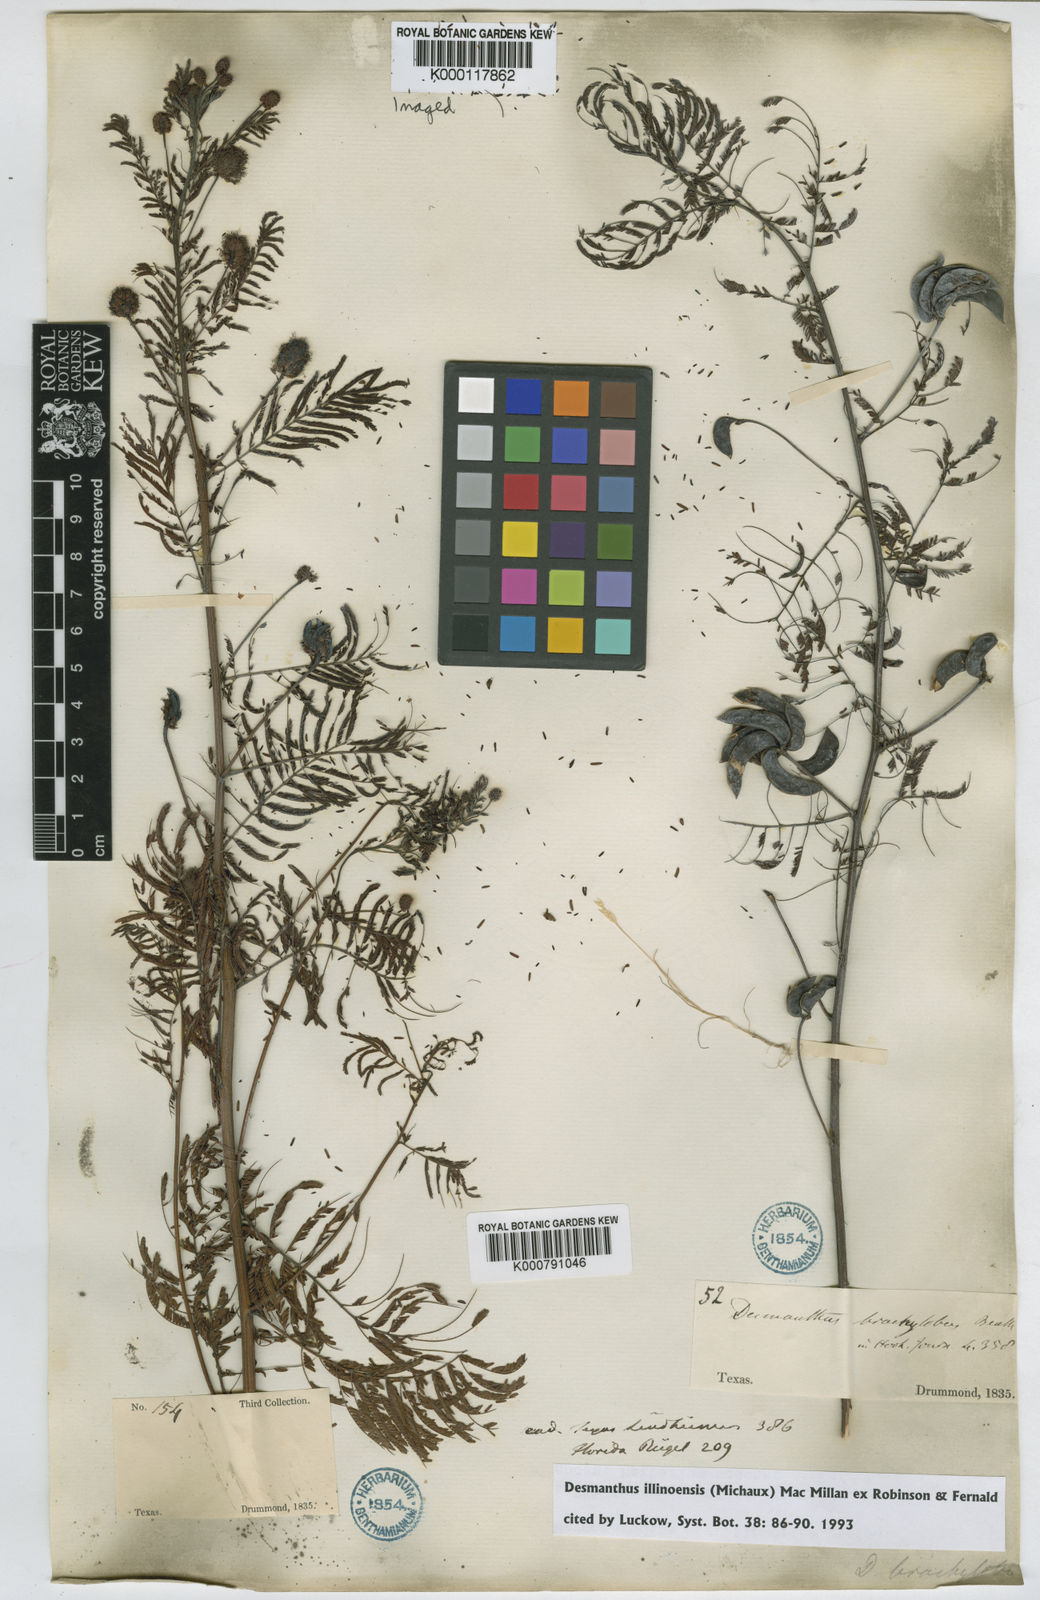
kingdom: Plantae
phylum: Tracheophyta
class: Magnoliopsida
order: Fabales
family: Fabaceae
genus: Desmanthus
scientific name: Desmanthus illinoensis
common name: Illinois bundle-flower
